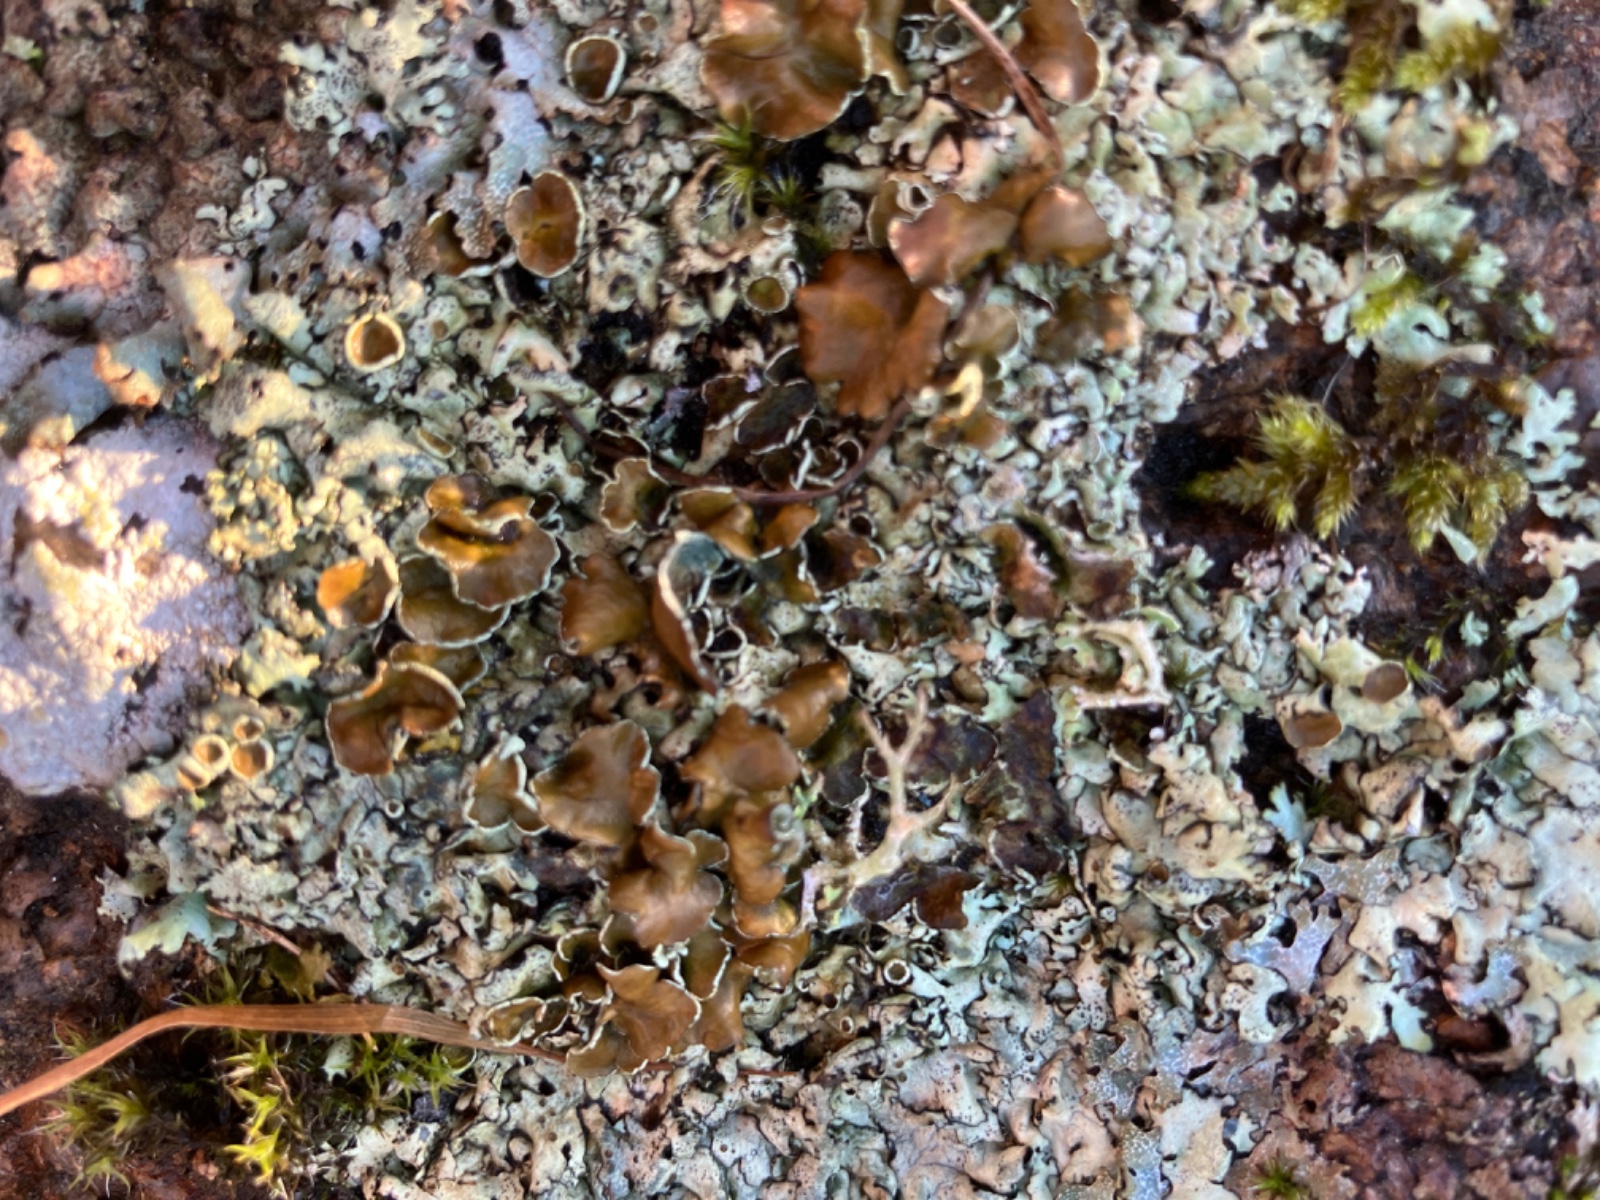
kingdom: Fungi
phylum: Ascomycota
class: Lecanoromycetes
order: Lecanorales
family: Parmeliaceae
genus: Xanthoparmelia
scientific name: Xanthoparmelia conspersa
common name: messing-skållav
